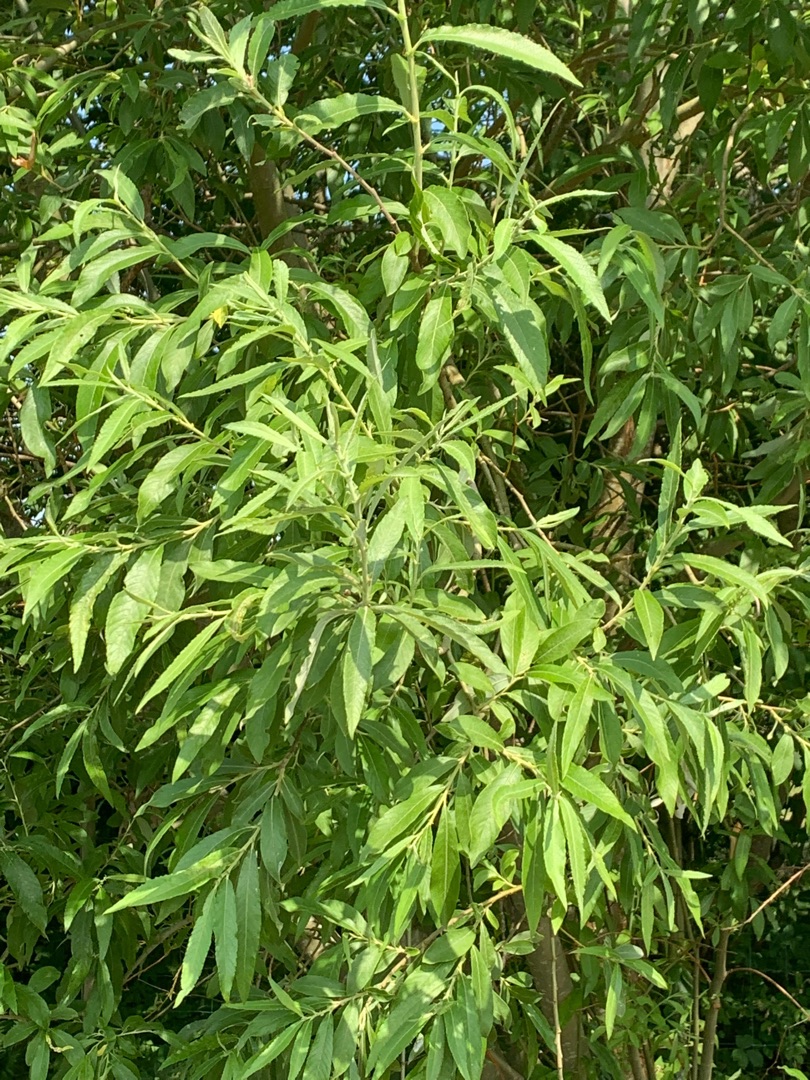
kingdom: Plantae
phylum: Tracheophyta
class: Magnoliopsida
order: Malpighiales
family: Salicaceae
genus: Salix
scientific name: Salix
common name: Pileslægten
